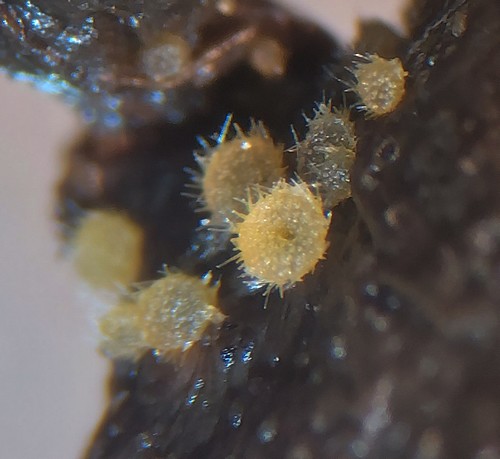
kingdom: Fungi
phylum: Ascomycota
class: Pezizomycetes
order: Pezizales
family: Ascodesmidaceae
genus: Lasiobolus
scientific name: Lasiobolus cuniculi
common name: toradet øjebæger
